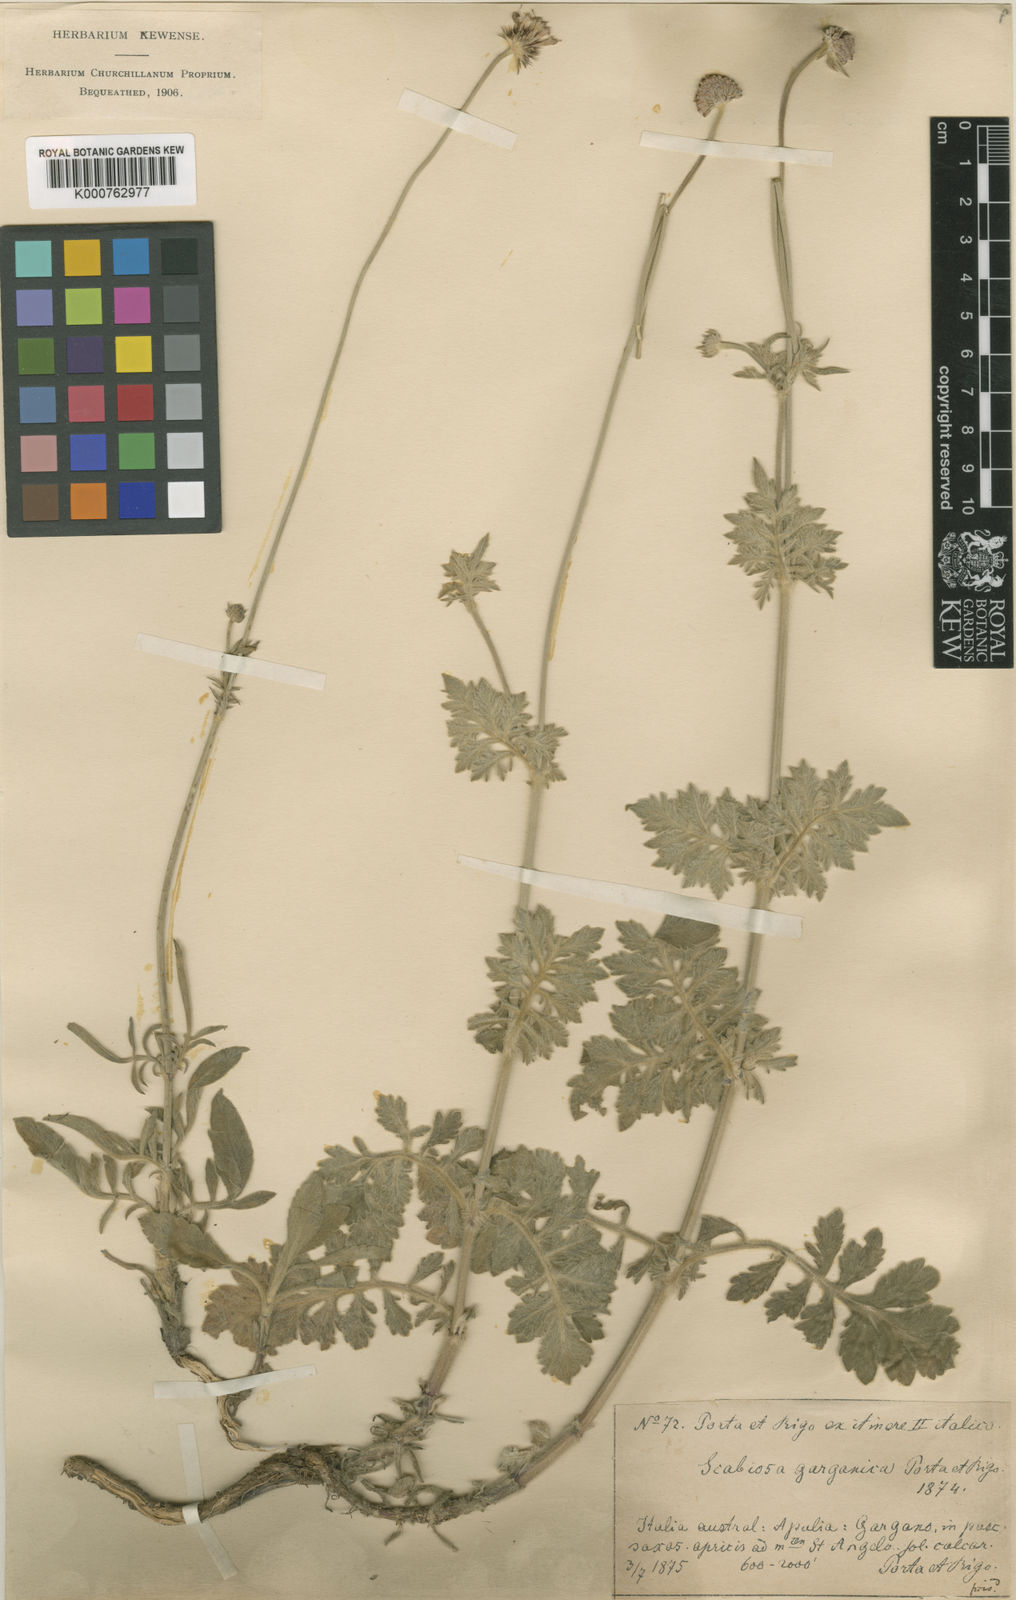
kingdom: Plantae
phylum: Tracheophyta
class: Magnoliopsida
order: Dipsacales
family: Caprifoliaceae
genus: Scabiosa
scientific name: Scabiosa holosericea
